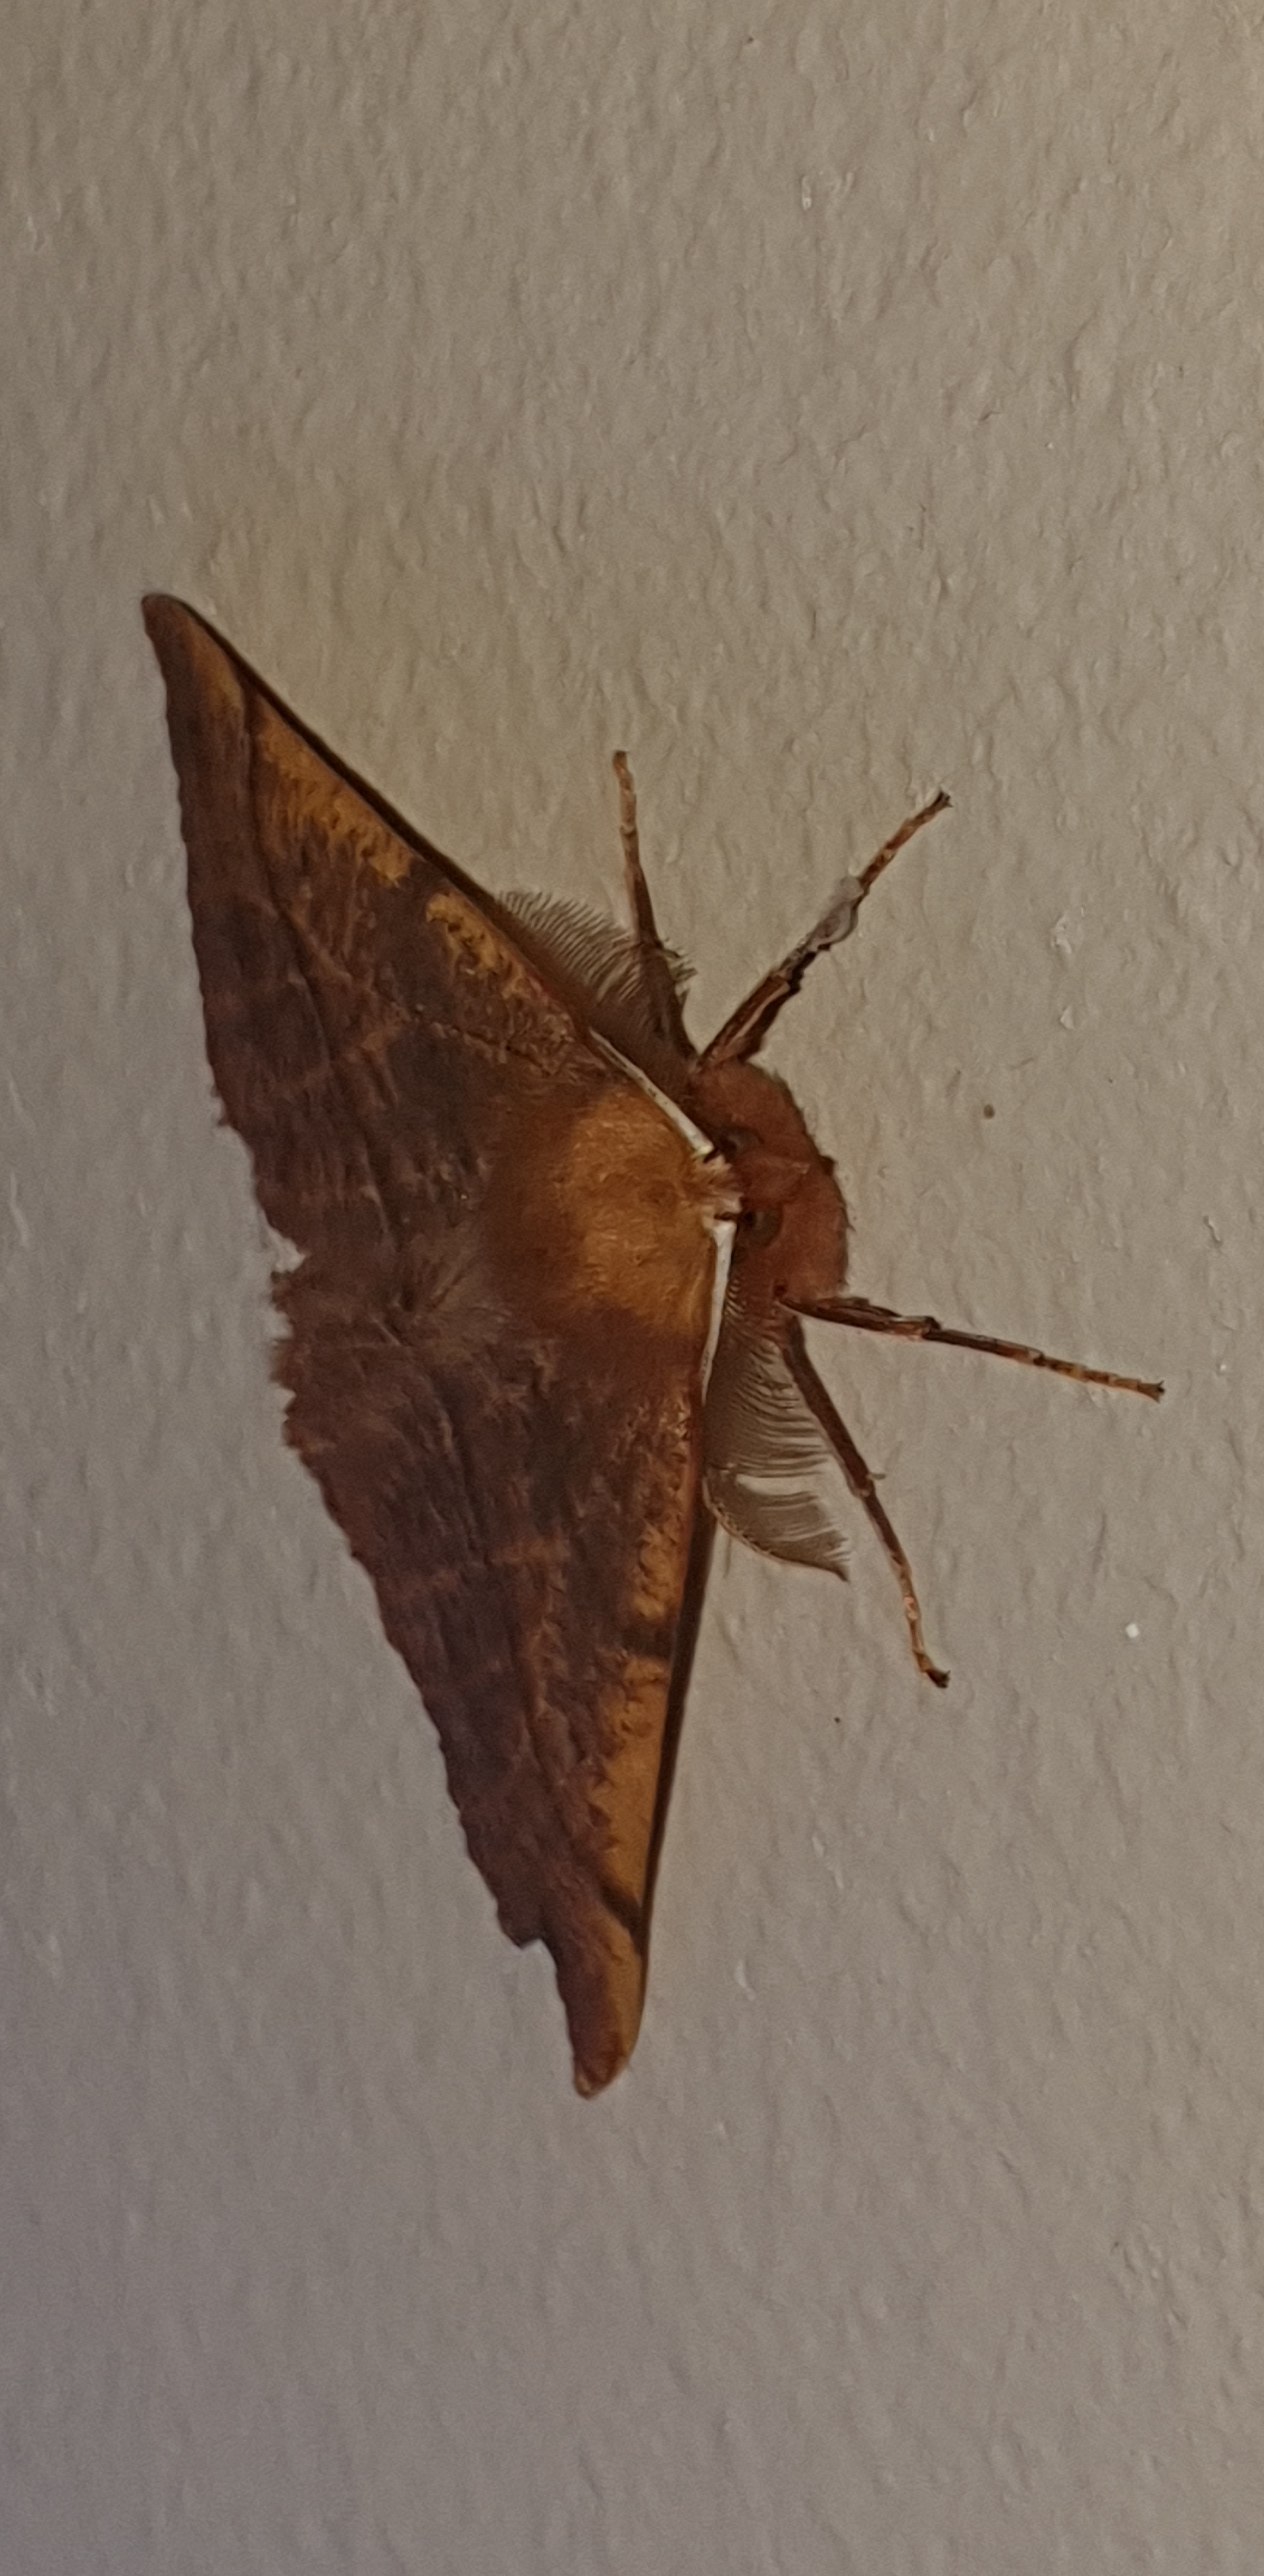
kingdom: Animalia
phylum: Arthropoda
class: Insecta
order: Lepidoptera
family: Geometridae
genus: Colotois
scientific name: Colotois pennaria
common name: Løvfaldsmåler
